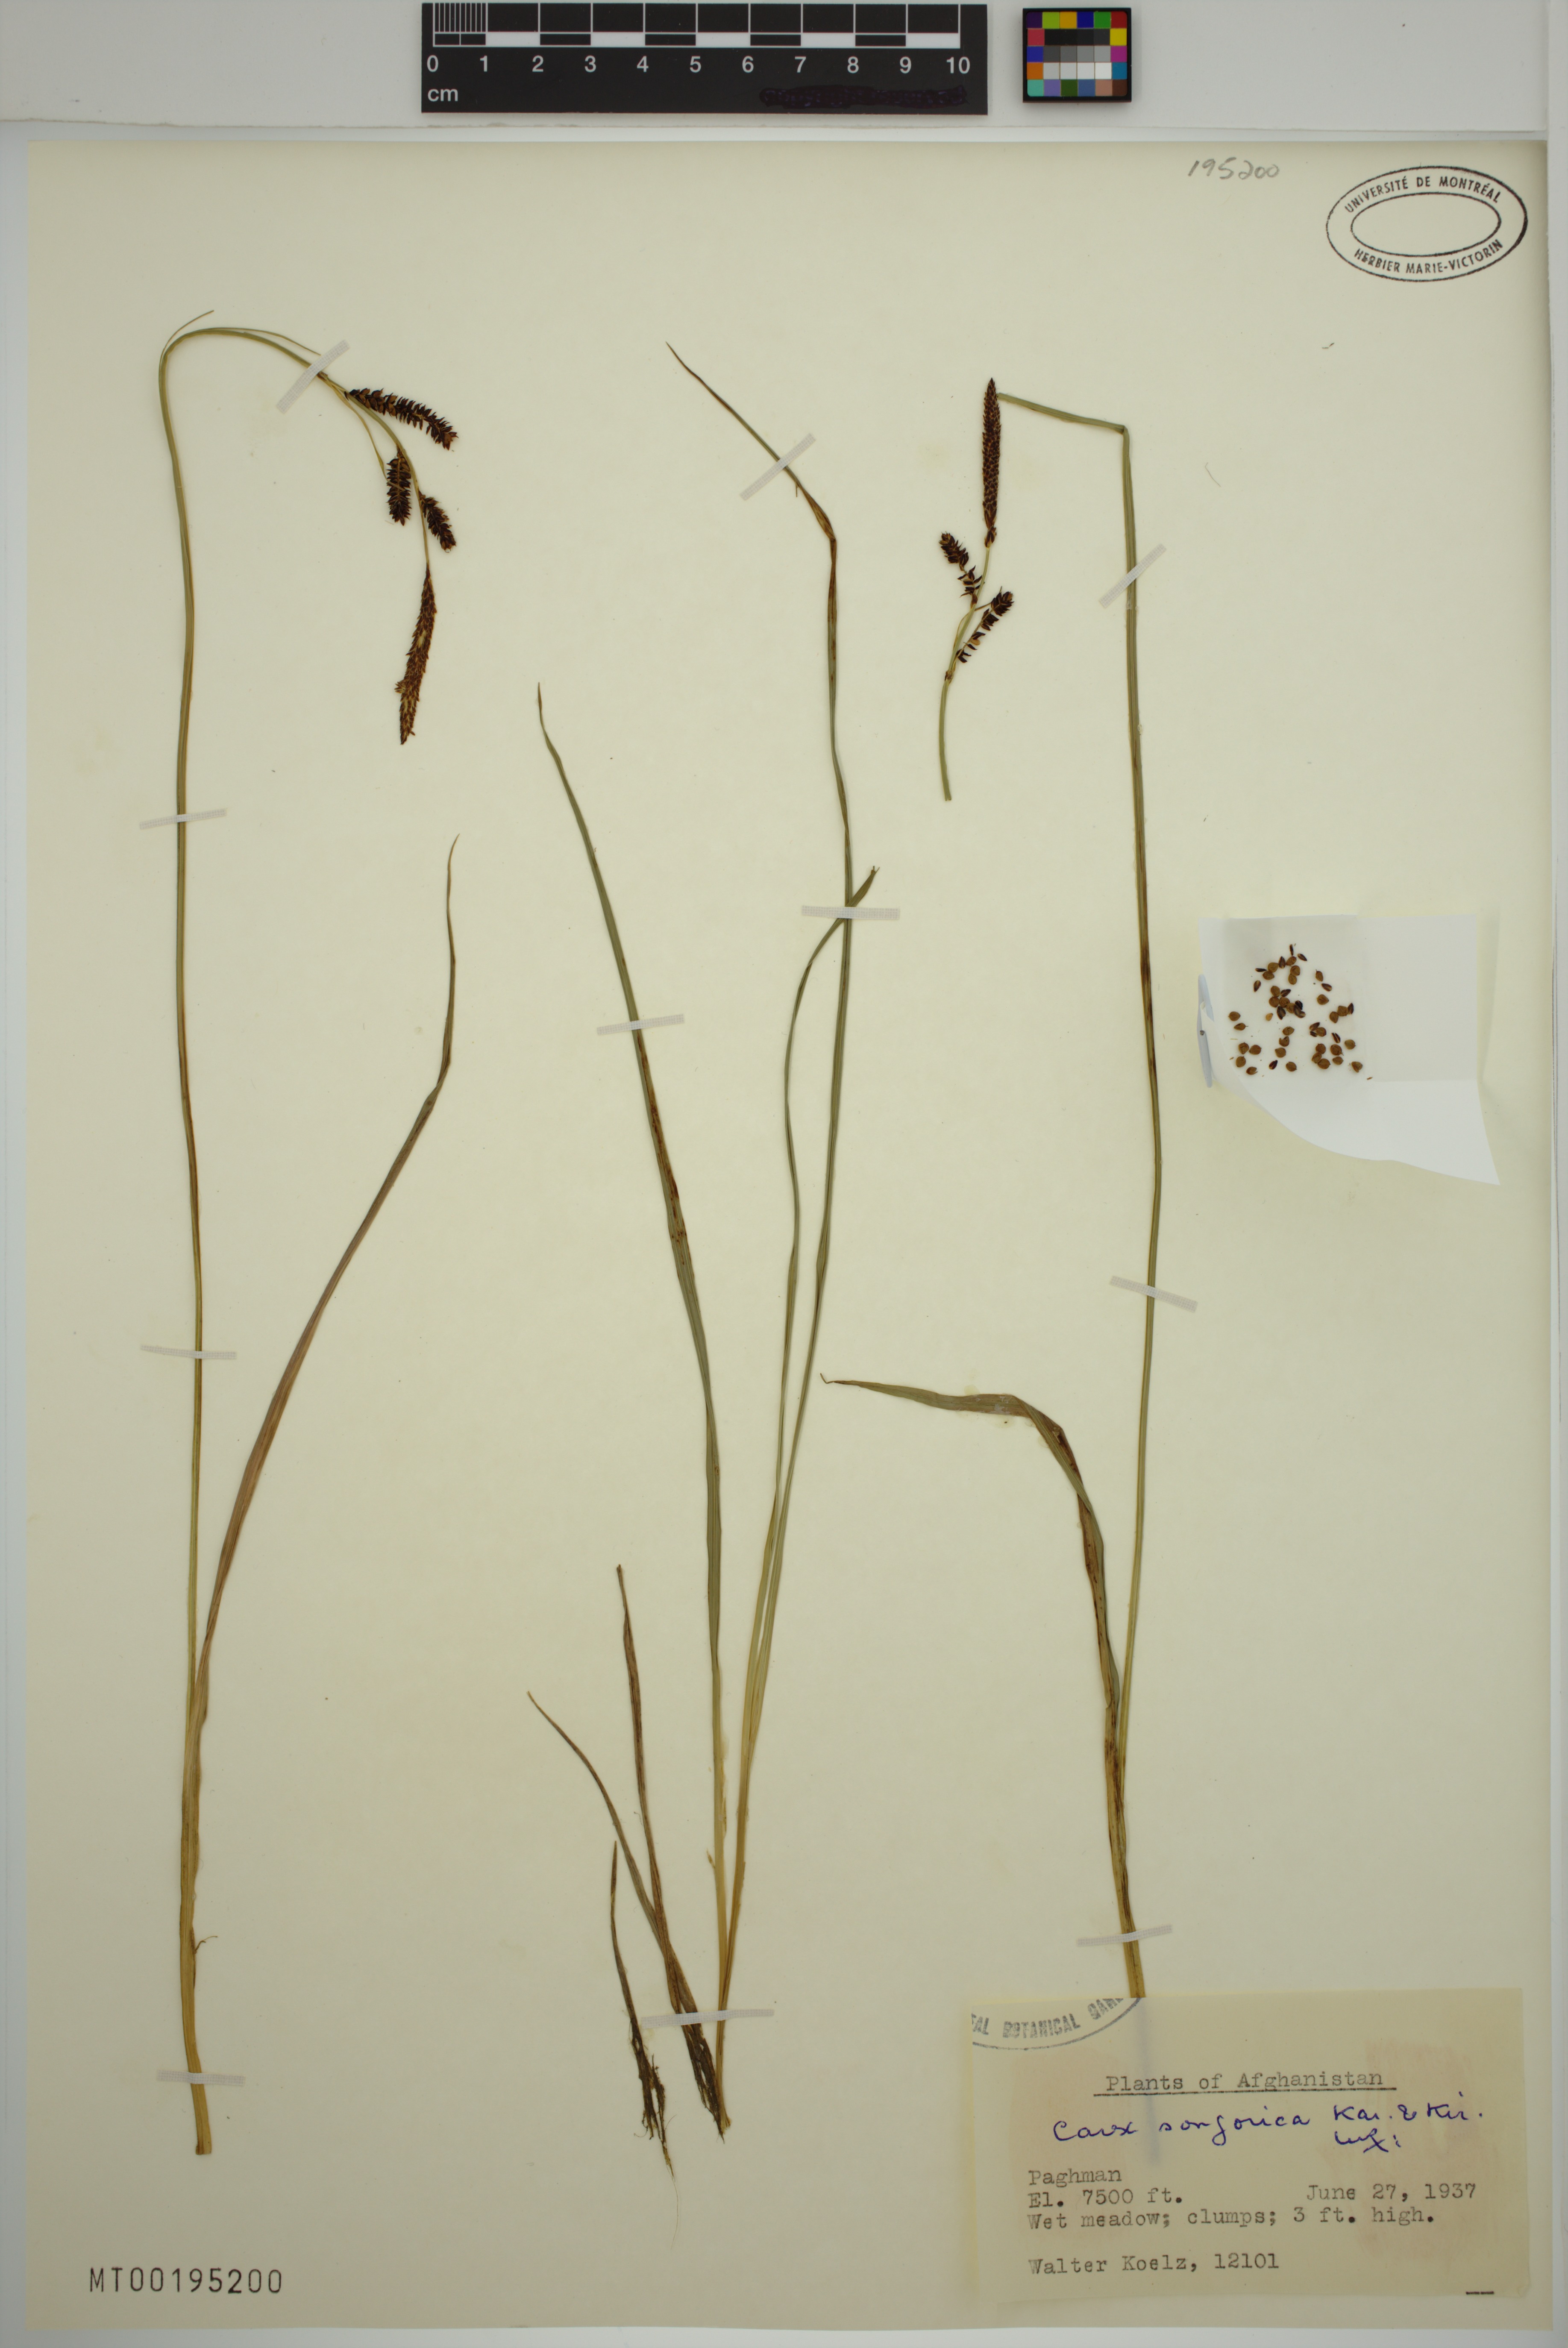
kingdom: Plantae
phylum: Tracheophyta
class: Liliopsida
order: Poales
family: Cyperaceae
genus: Carex
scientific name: Carex songorica
